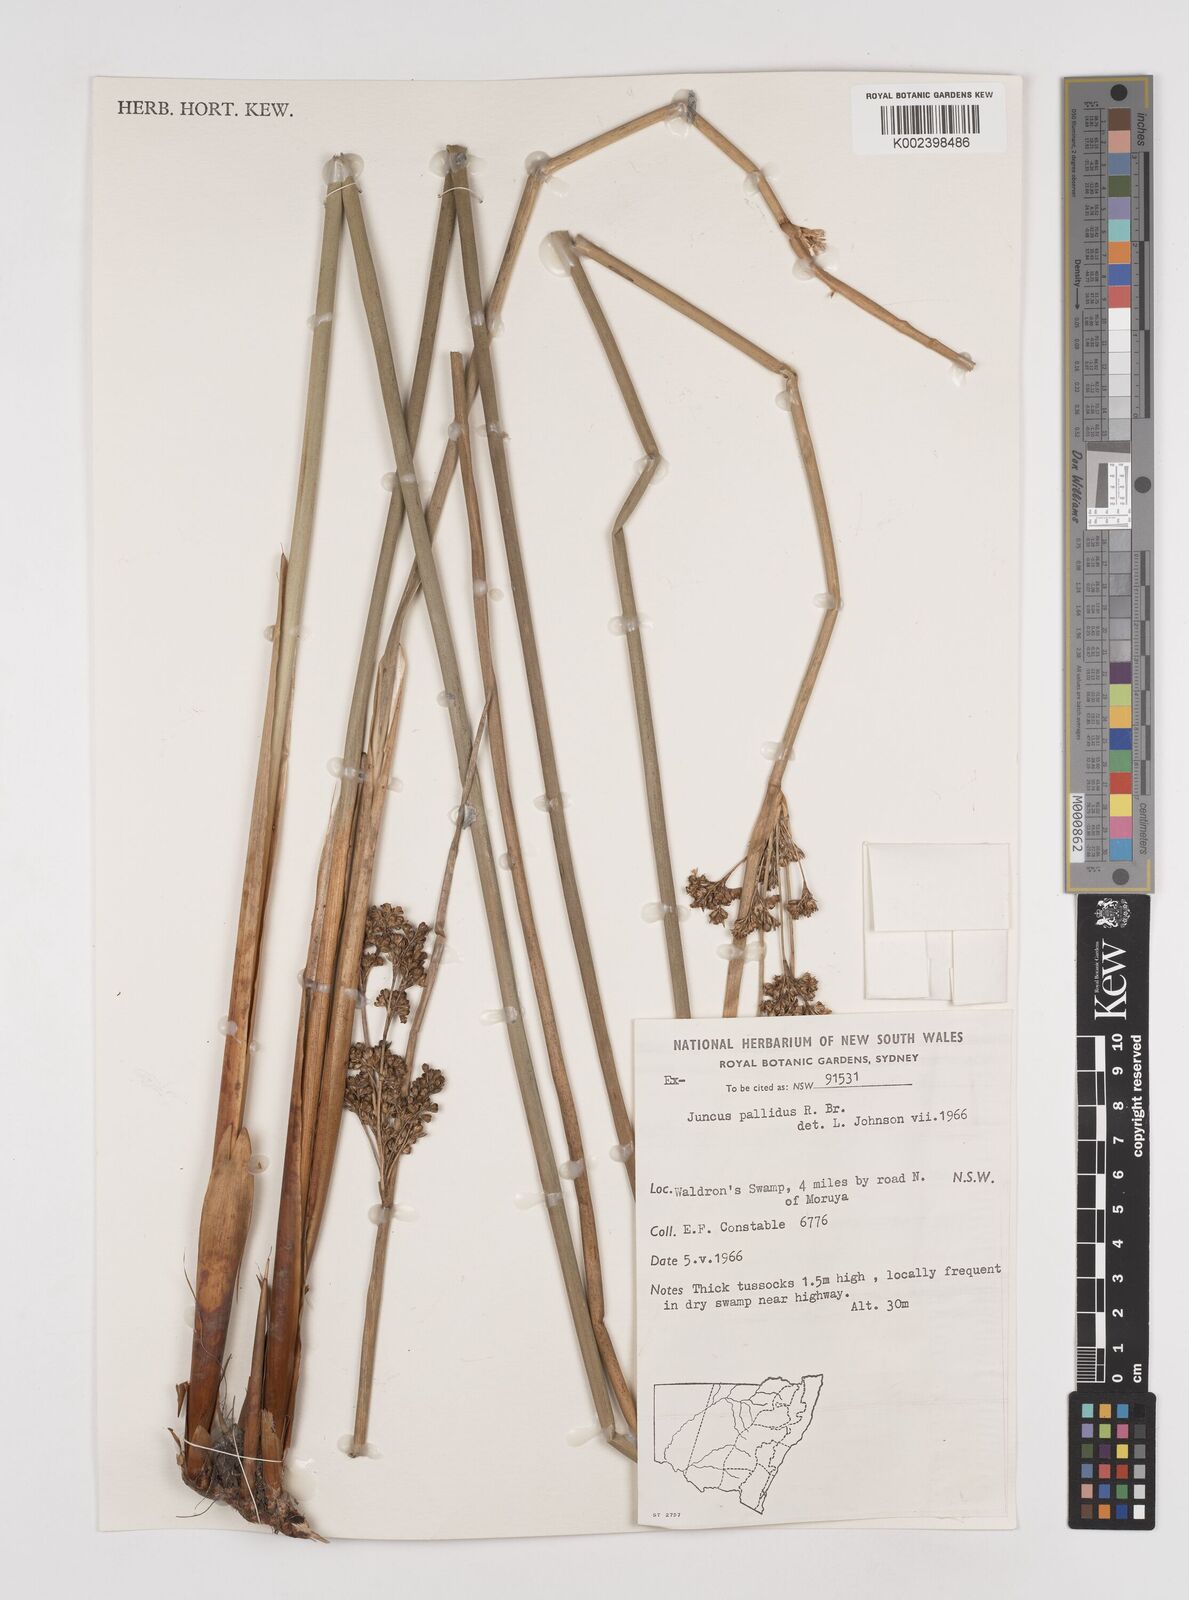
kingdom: Plantae
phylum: Tracheophyta
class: Liliopsida
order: Poales
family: Juncaceae
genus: Juncus
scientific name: Juncus pallidus
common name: Great soft-rush
